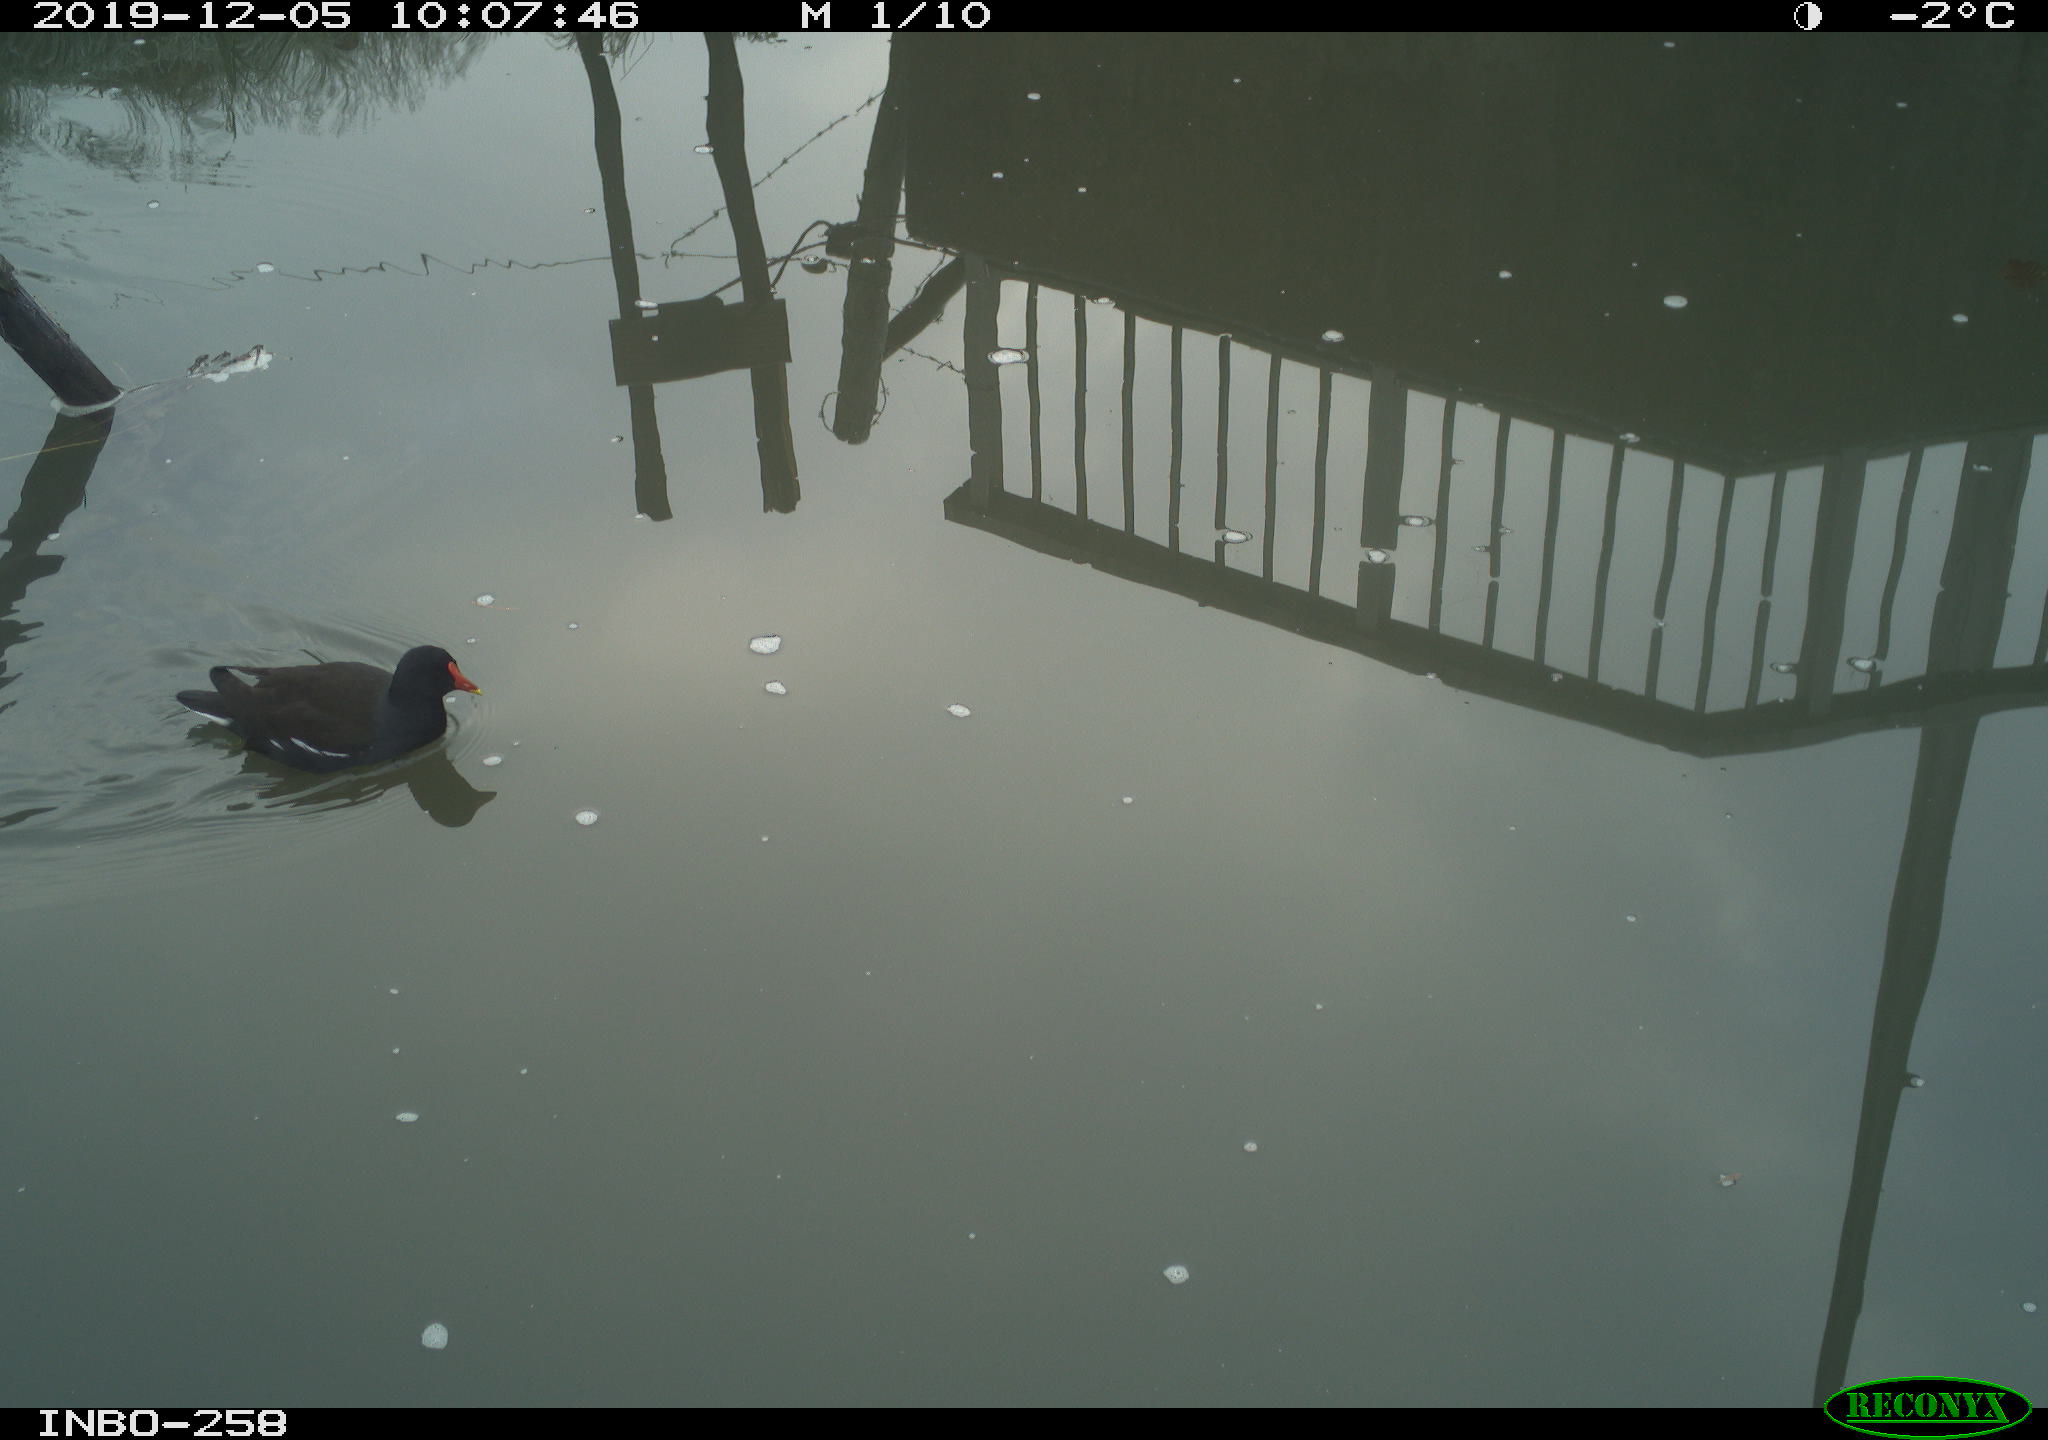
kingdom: Animalia
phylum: Chordata
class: Aves
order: Gruiformes
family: Rallidae
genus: Gallinula
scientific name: Gallinula chloropus
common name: Common moorhen
